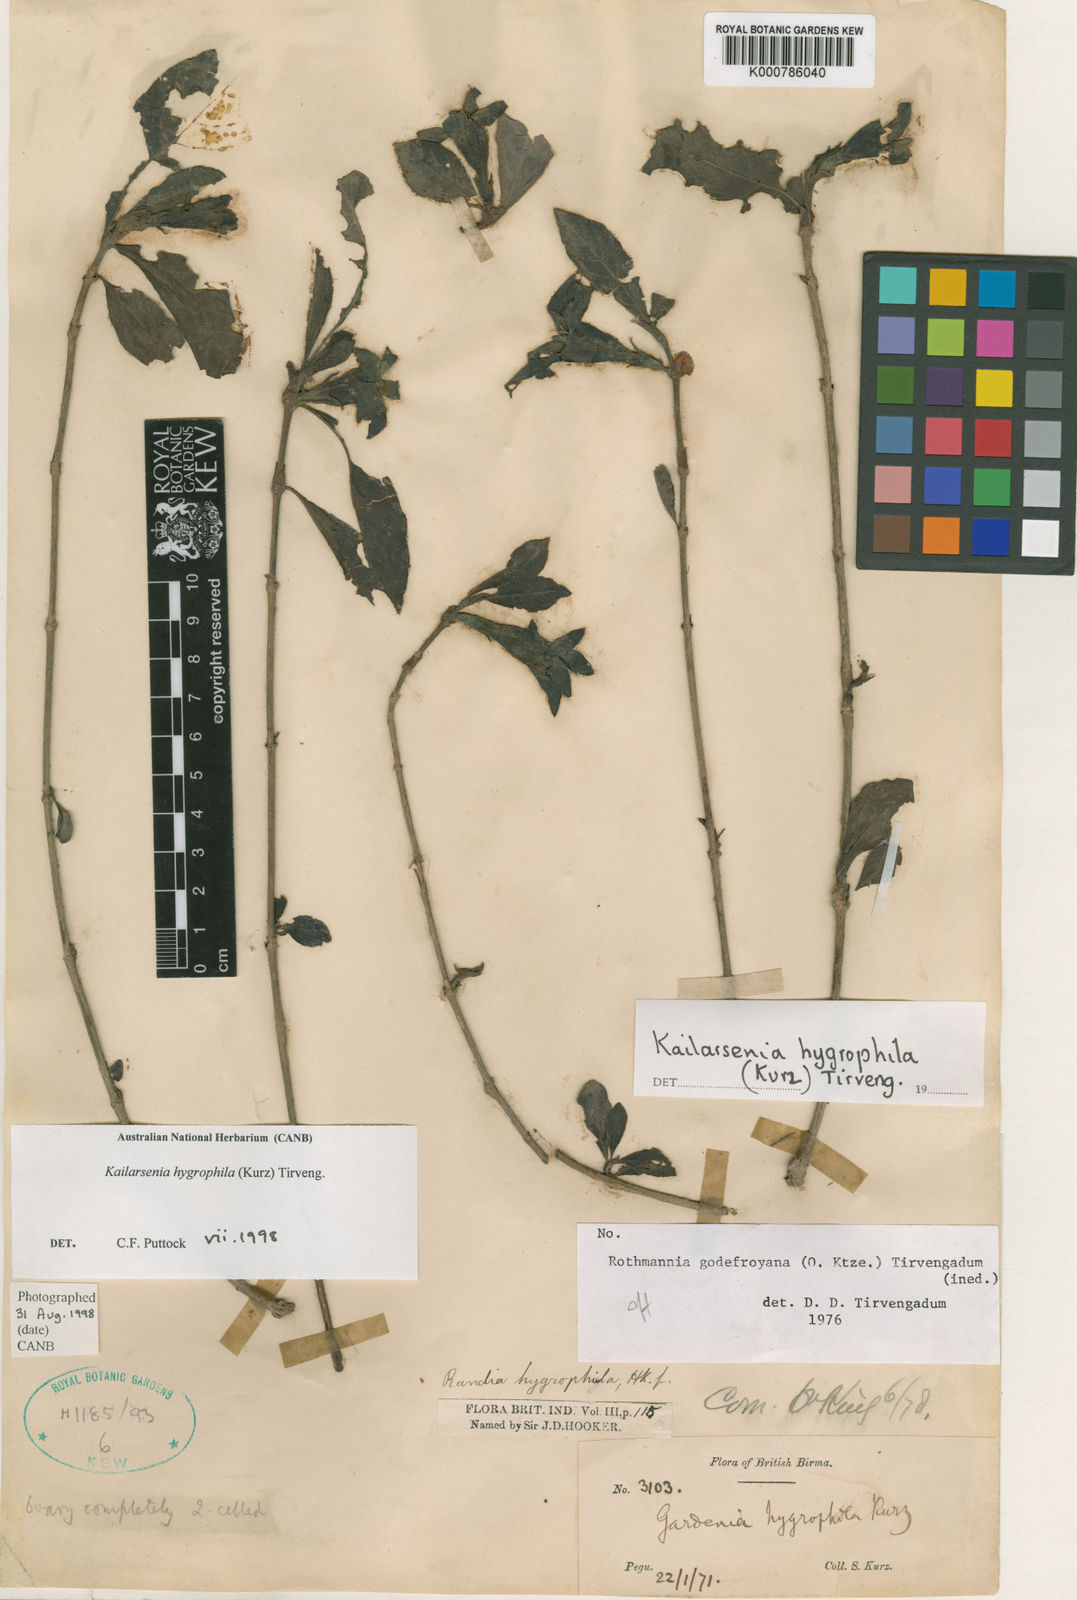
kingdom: Plantae
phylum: Tracheophyta
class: Magnoliopsida
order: Gentianales
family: Rubiaceae
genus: Kailarsenia
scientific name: Kailarsenia hygrophila
